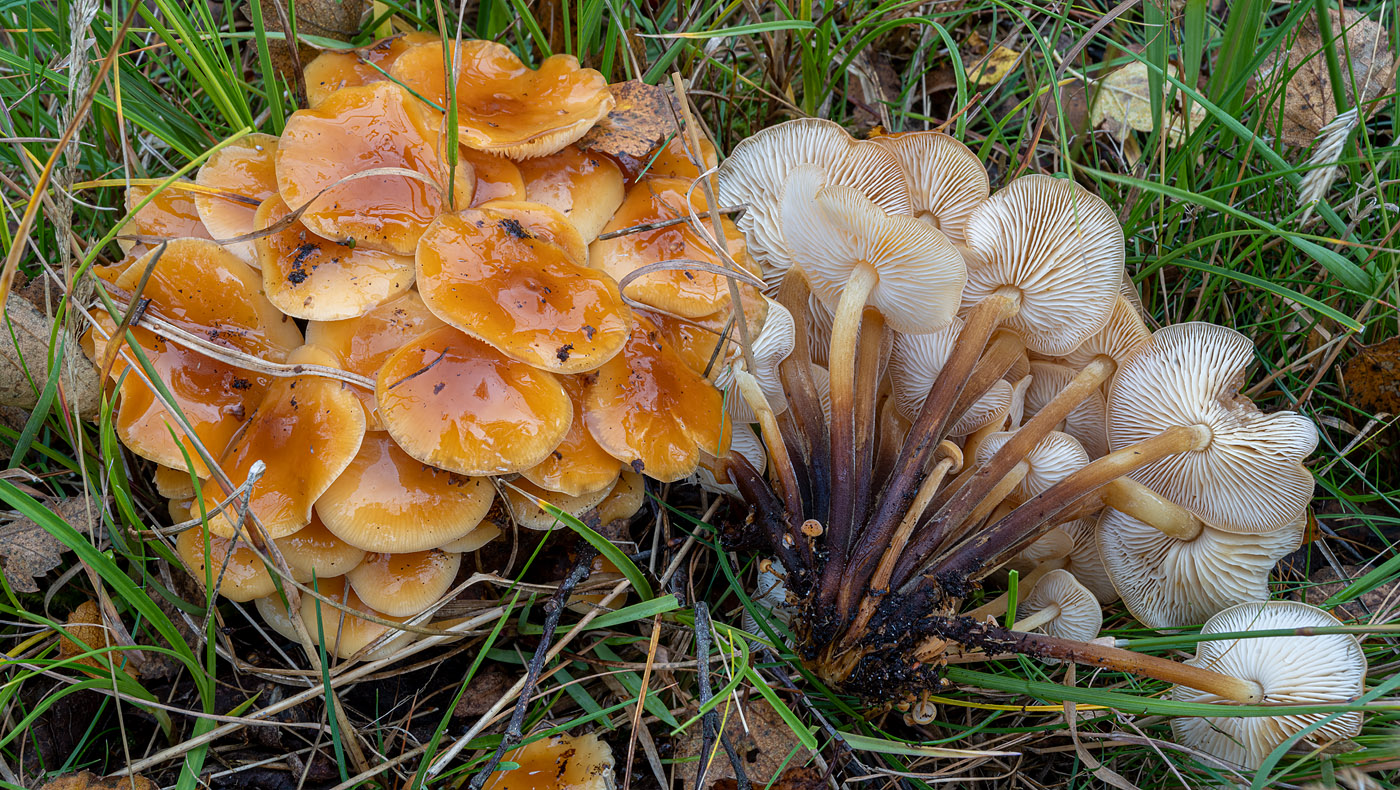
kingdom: Fungi
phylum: Basidiomycota
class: Agaricomycetes
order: Agaricales
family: Physalacriaceae
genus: Flammulina
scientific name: Flammulina velutipes
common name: gul fløjlsfod
